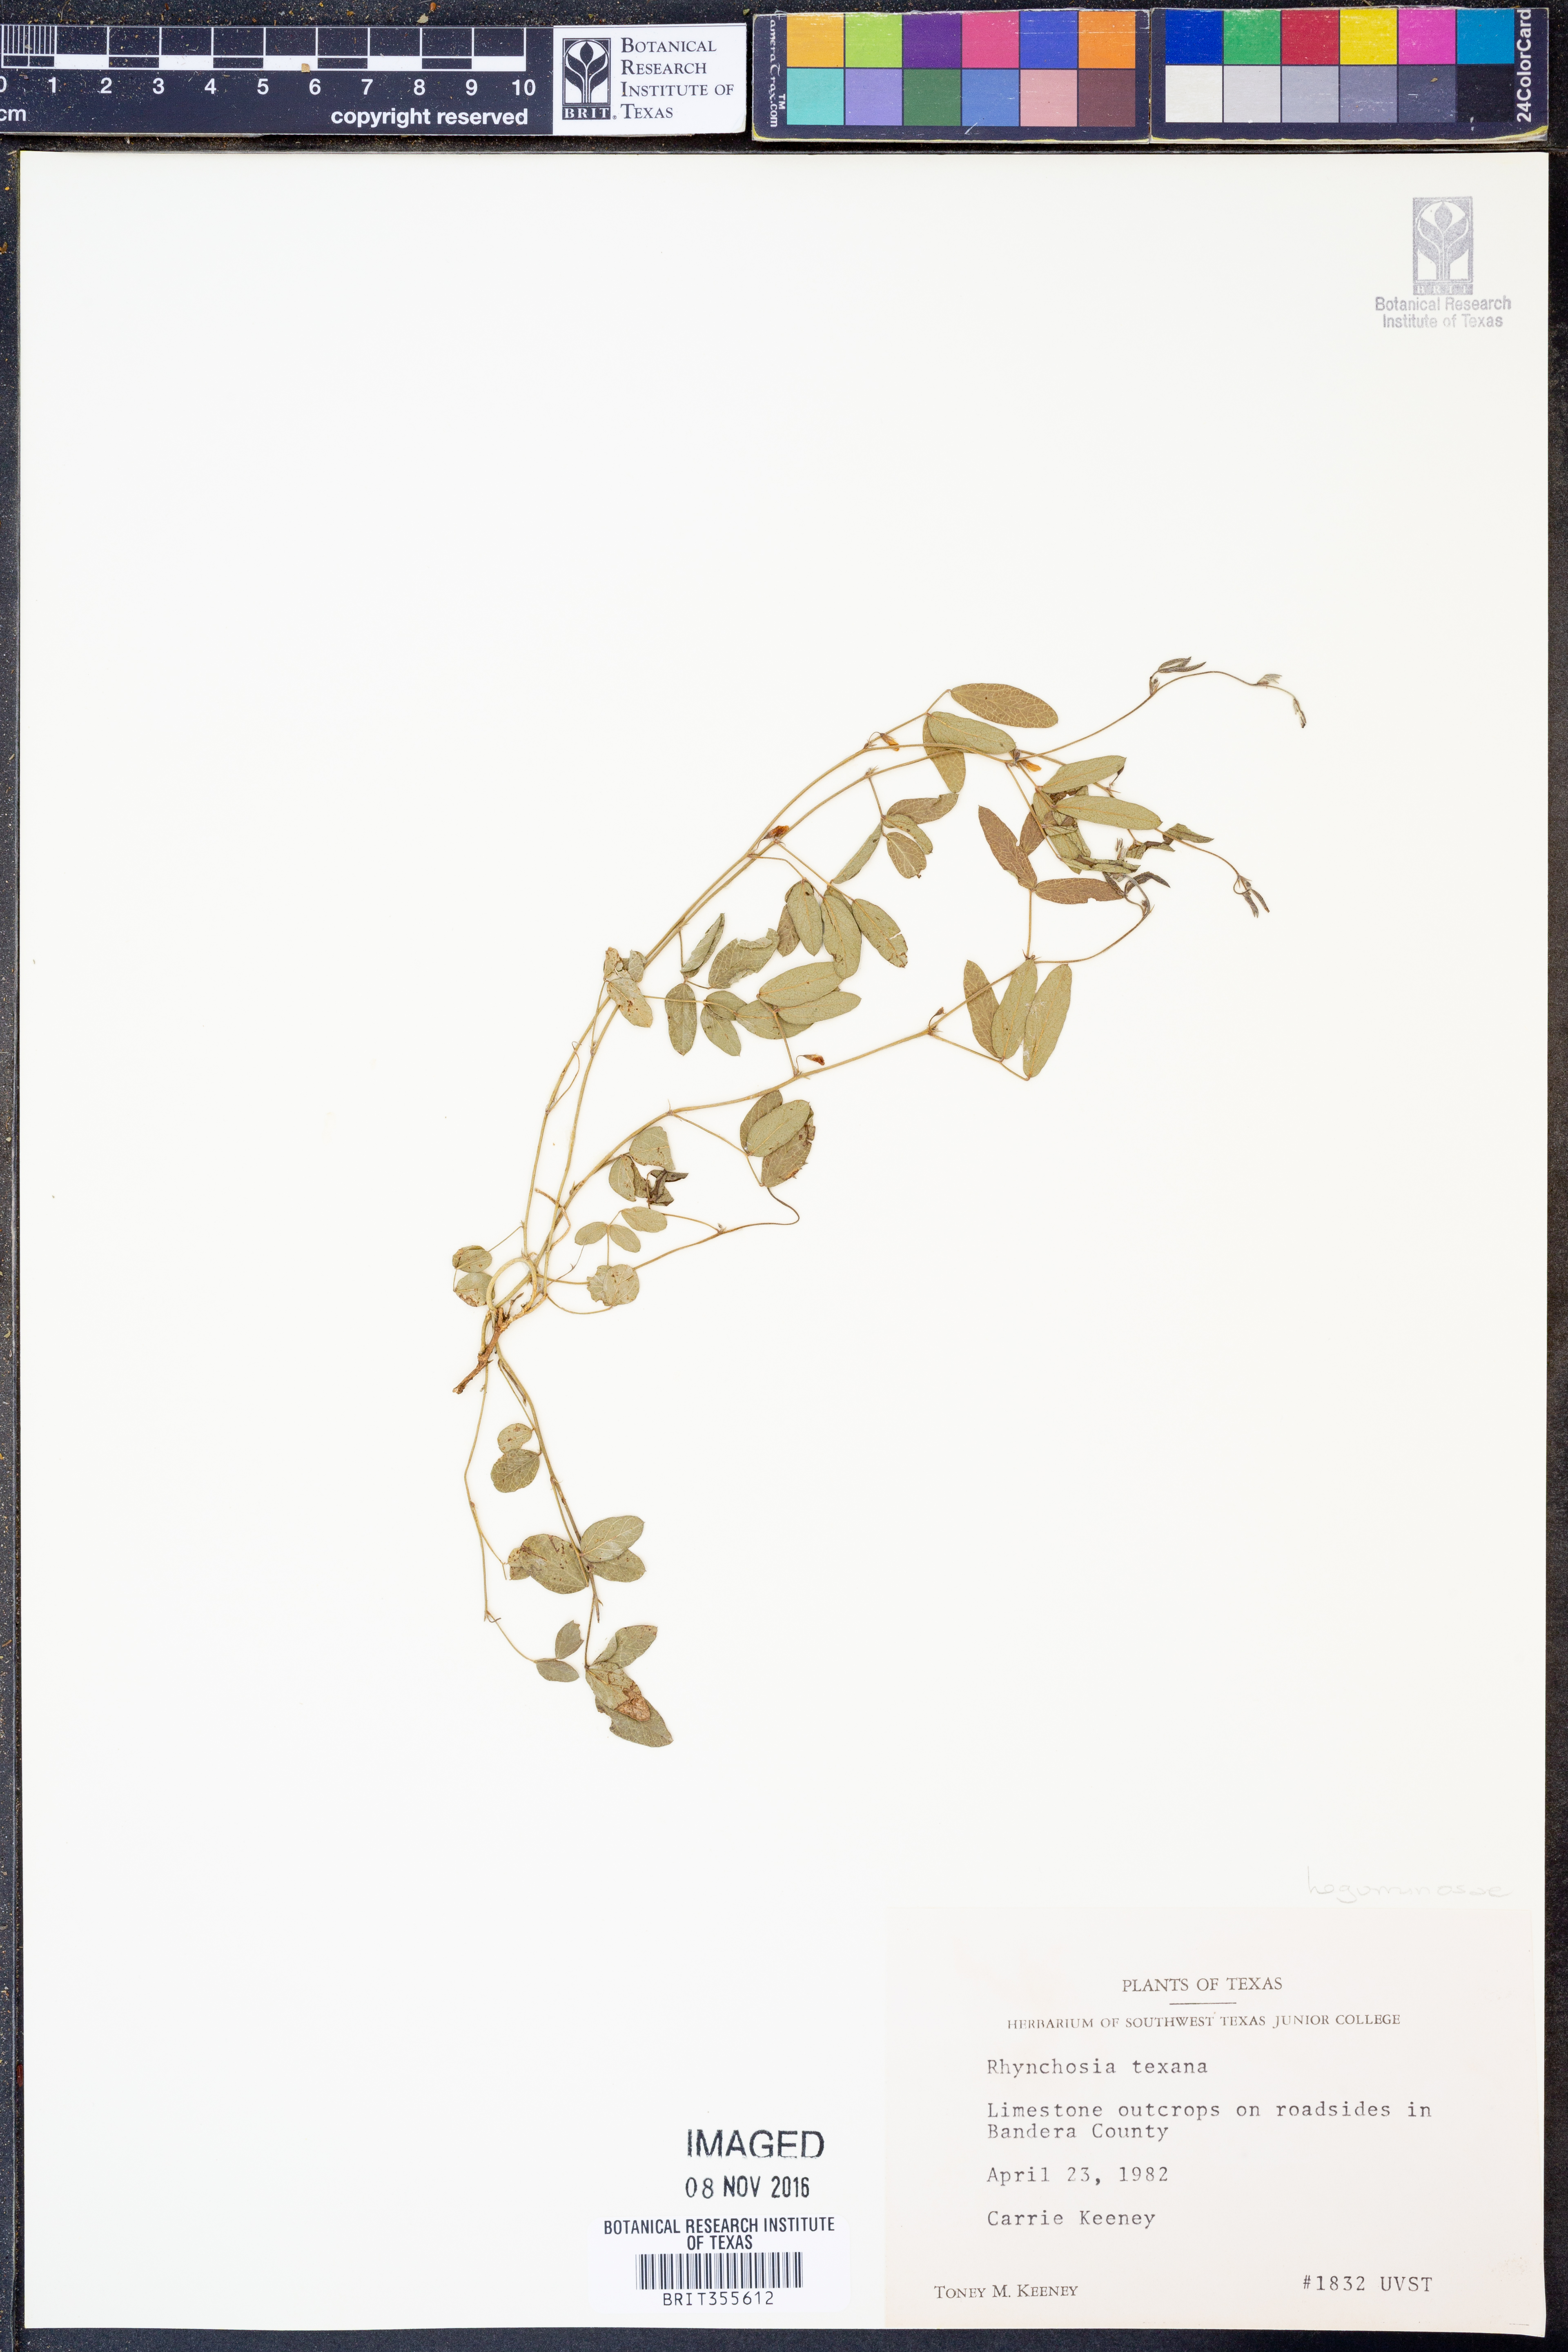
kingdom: Plantae
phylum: Tracheophyta
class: Magnoliopsida
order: Fabales
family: Fabaceae
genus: Rhynchosia
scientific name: Rhynchosia senna
